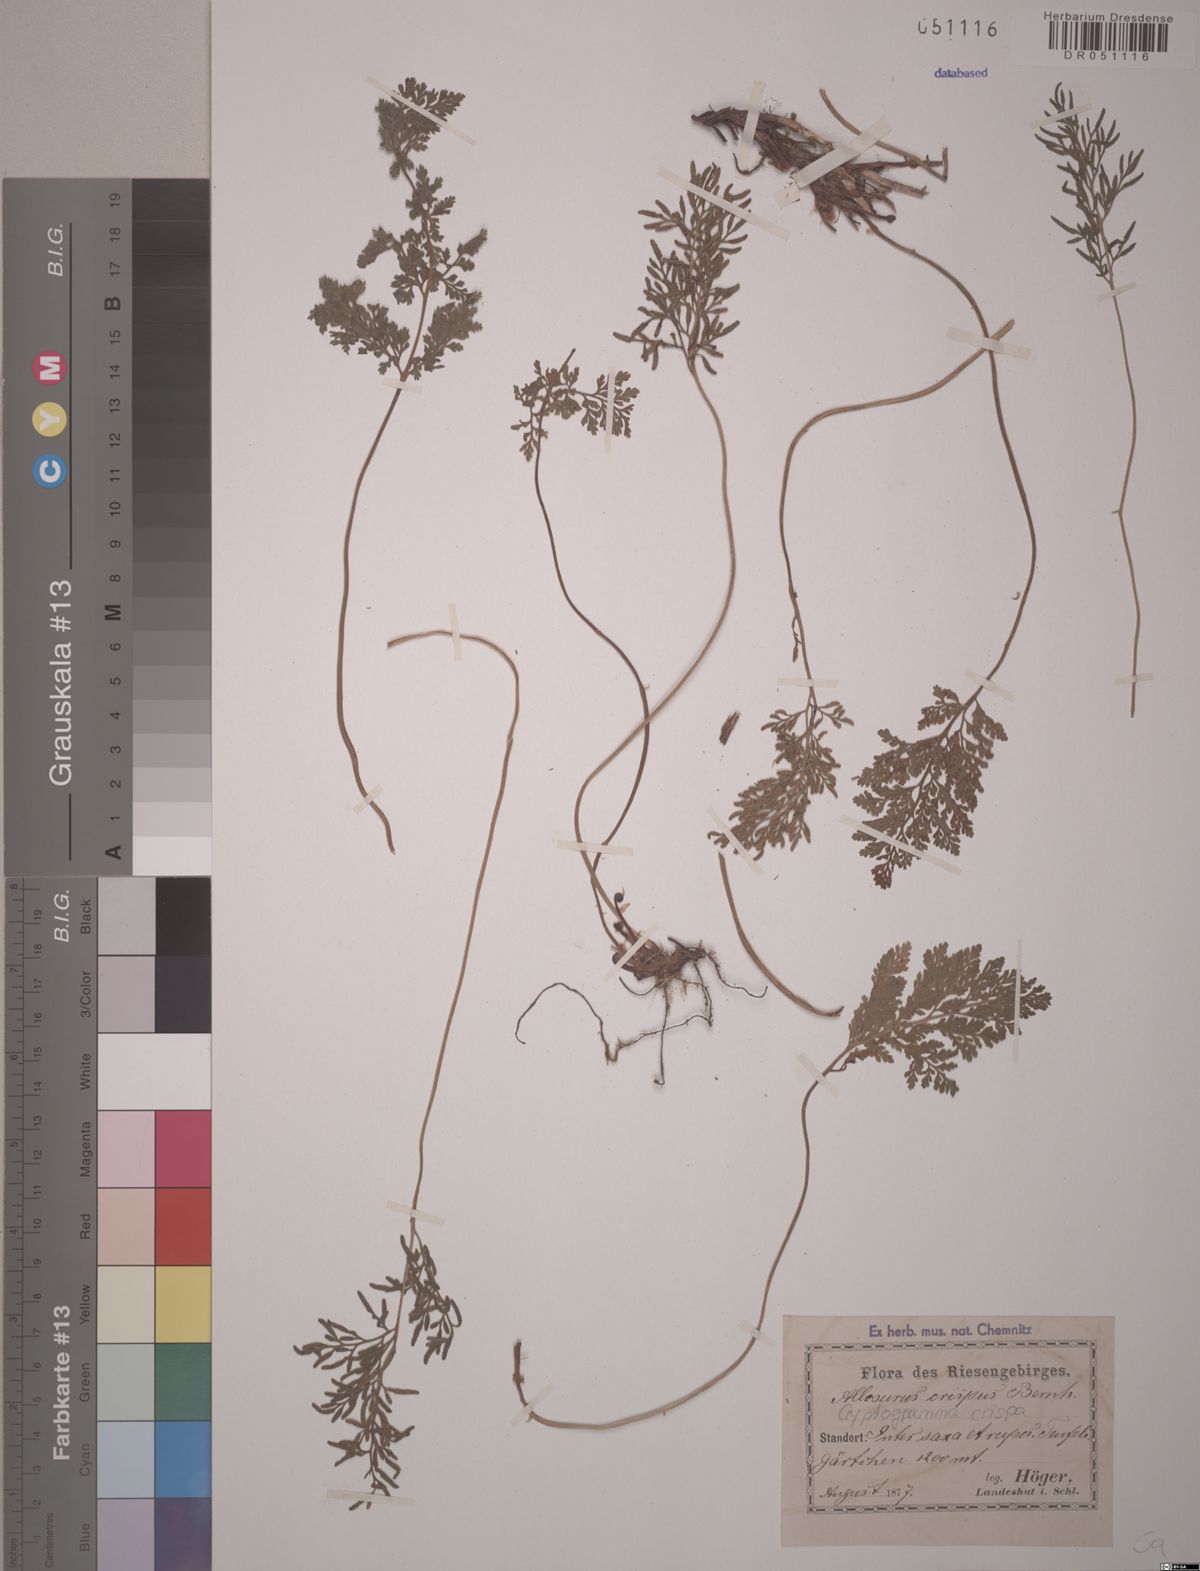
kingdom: Plantae
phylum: Tracheophyta
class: Polypodiopsida
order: Polypodiales
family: Pteridaceae
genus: Cryptogramma
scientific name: Cryptogramma crispa
